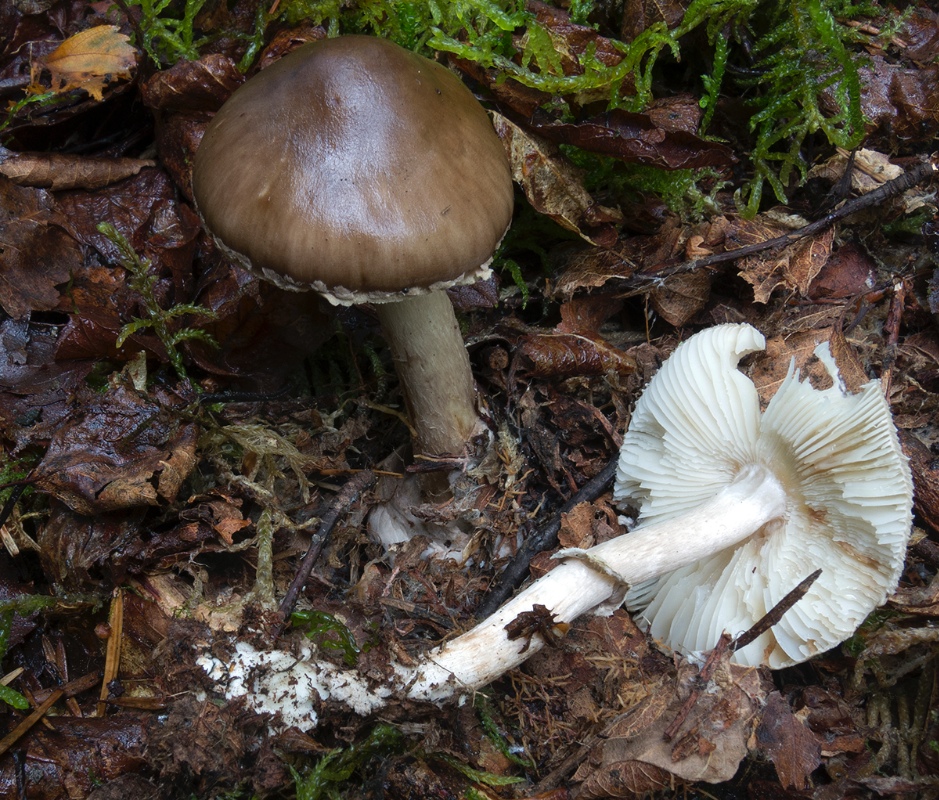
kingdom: Fungi
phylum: Basidiomycota
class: Agaricomycetes
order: Agaricales
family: Amanitaceae
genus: Amanita
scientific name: Amanita porphyria
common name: porfyr-fluesvamp
